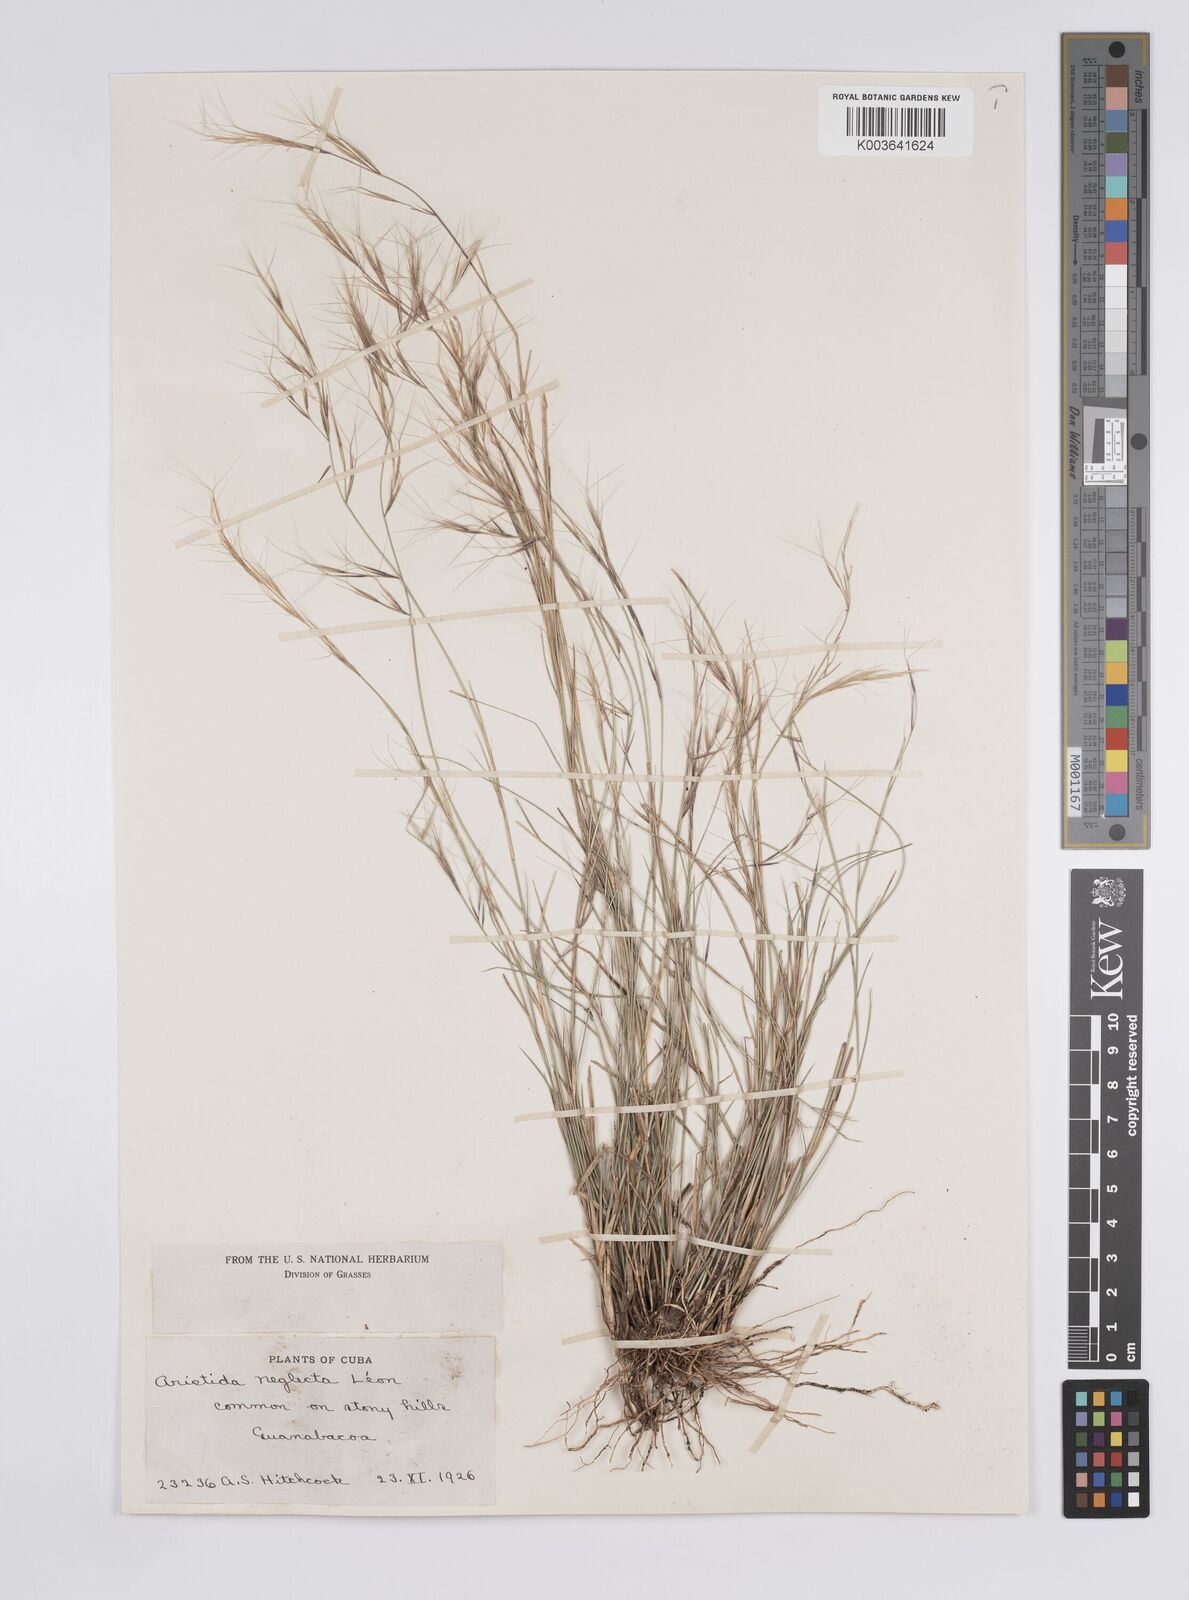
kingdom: Plantae
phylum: Tracheophyta
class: Liliopsida
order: Poales
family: Poaceae
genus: Aristida
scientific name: Aristida neglecta
